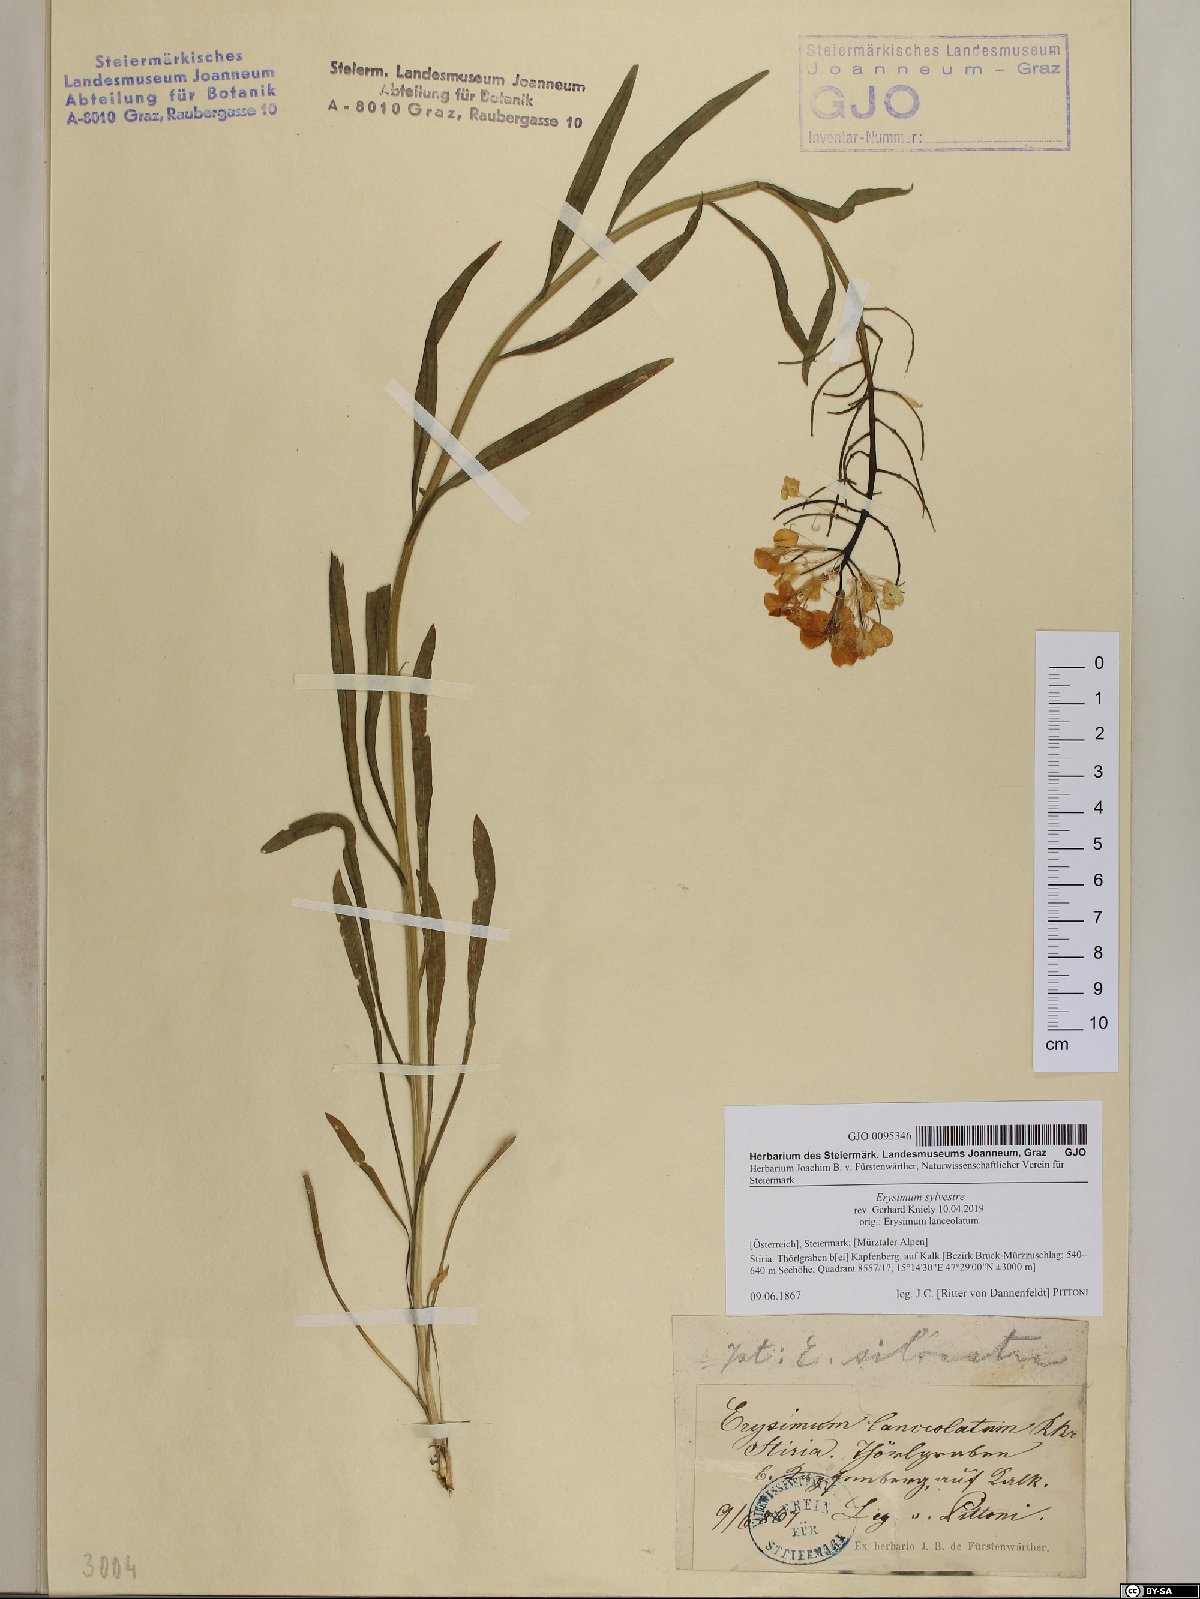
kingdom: Plantae
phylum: Tracheophyta
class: Magnoliopsida
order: Brassicales
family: Brassicaceae
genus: Erysimum
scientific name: Erysimum sylvestre
